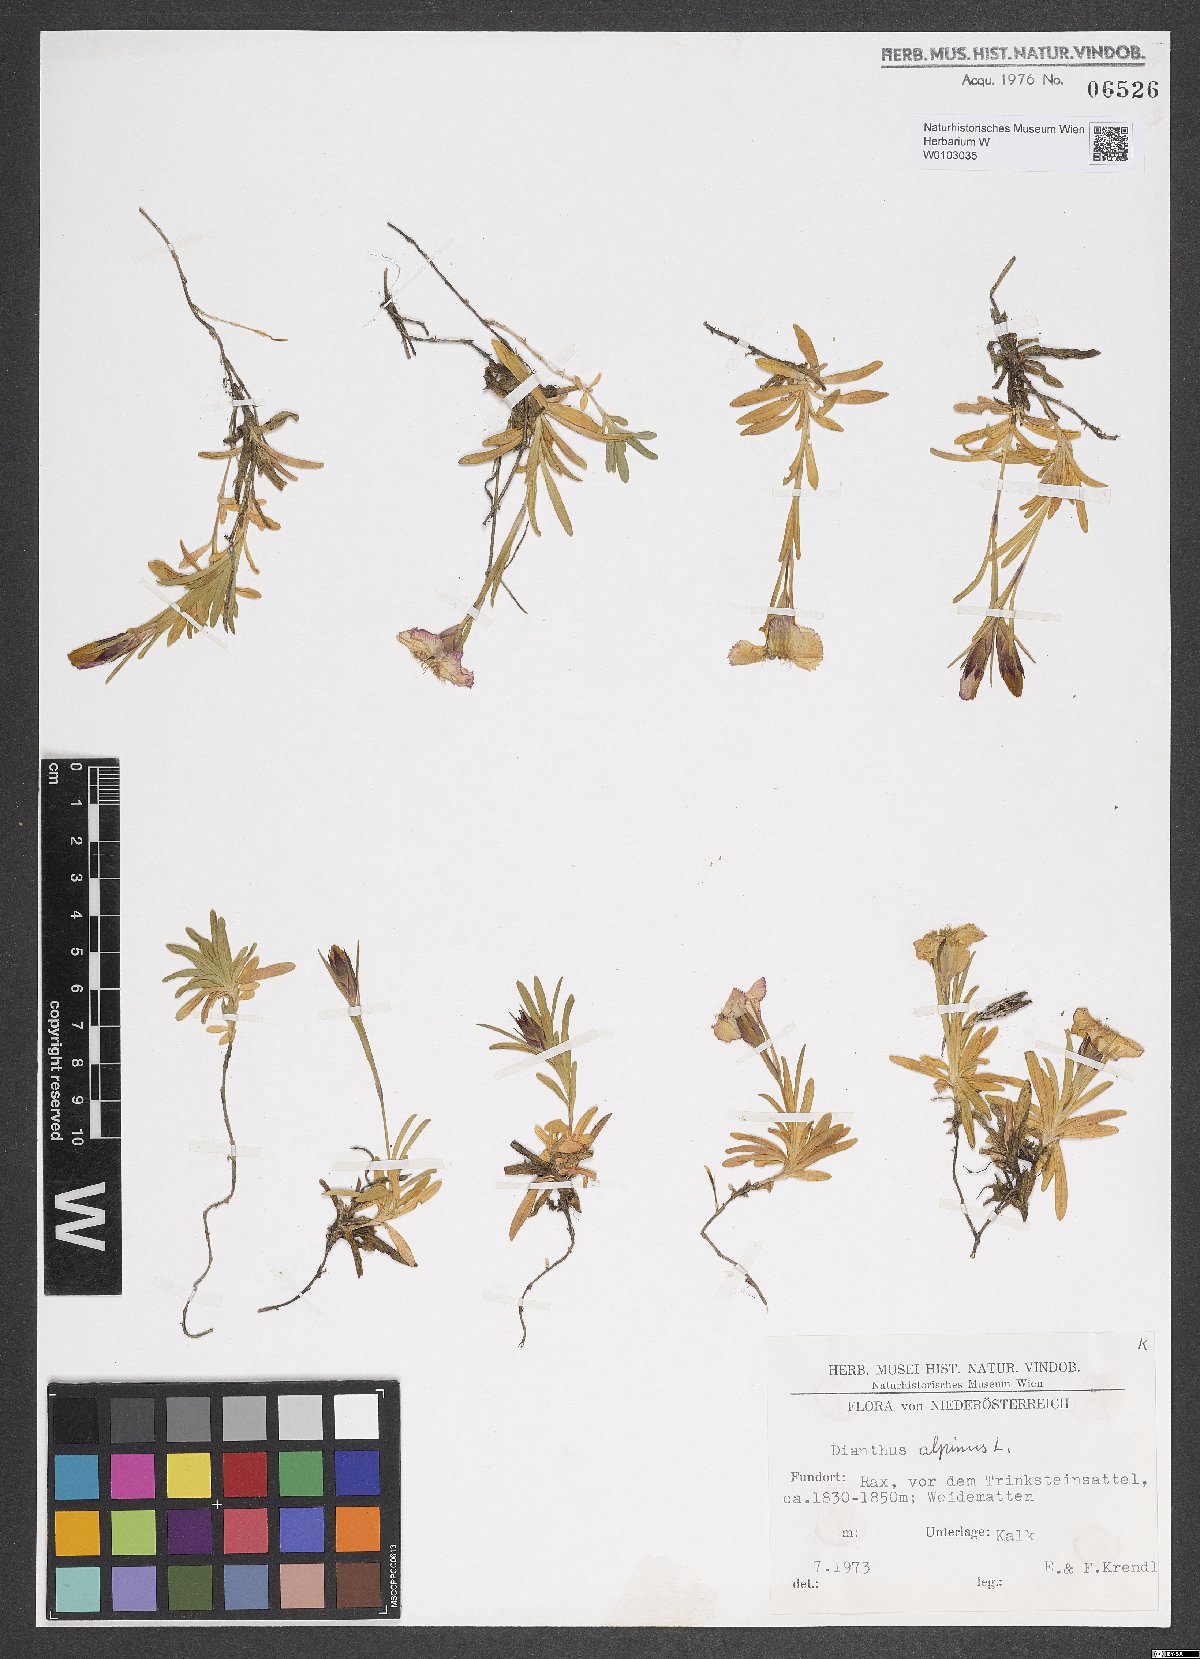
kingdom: Plantae
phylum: Tracheophyta
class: Magnoliopsida
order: Caryophyllales
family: Caryophyllaceae
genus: Dianthus
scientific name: Dianthus alpinus
